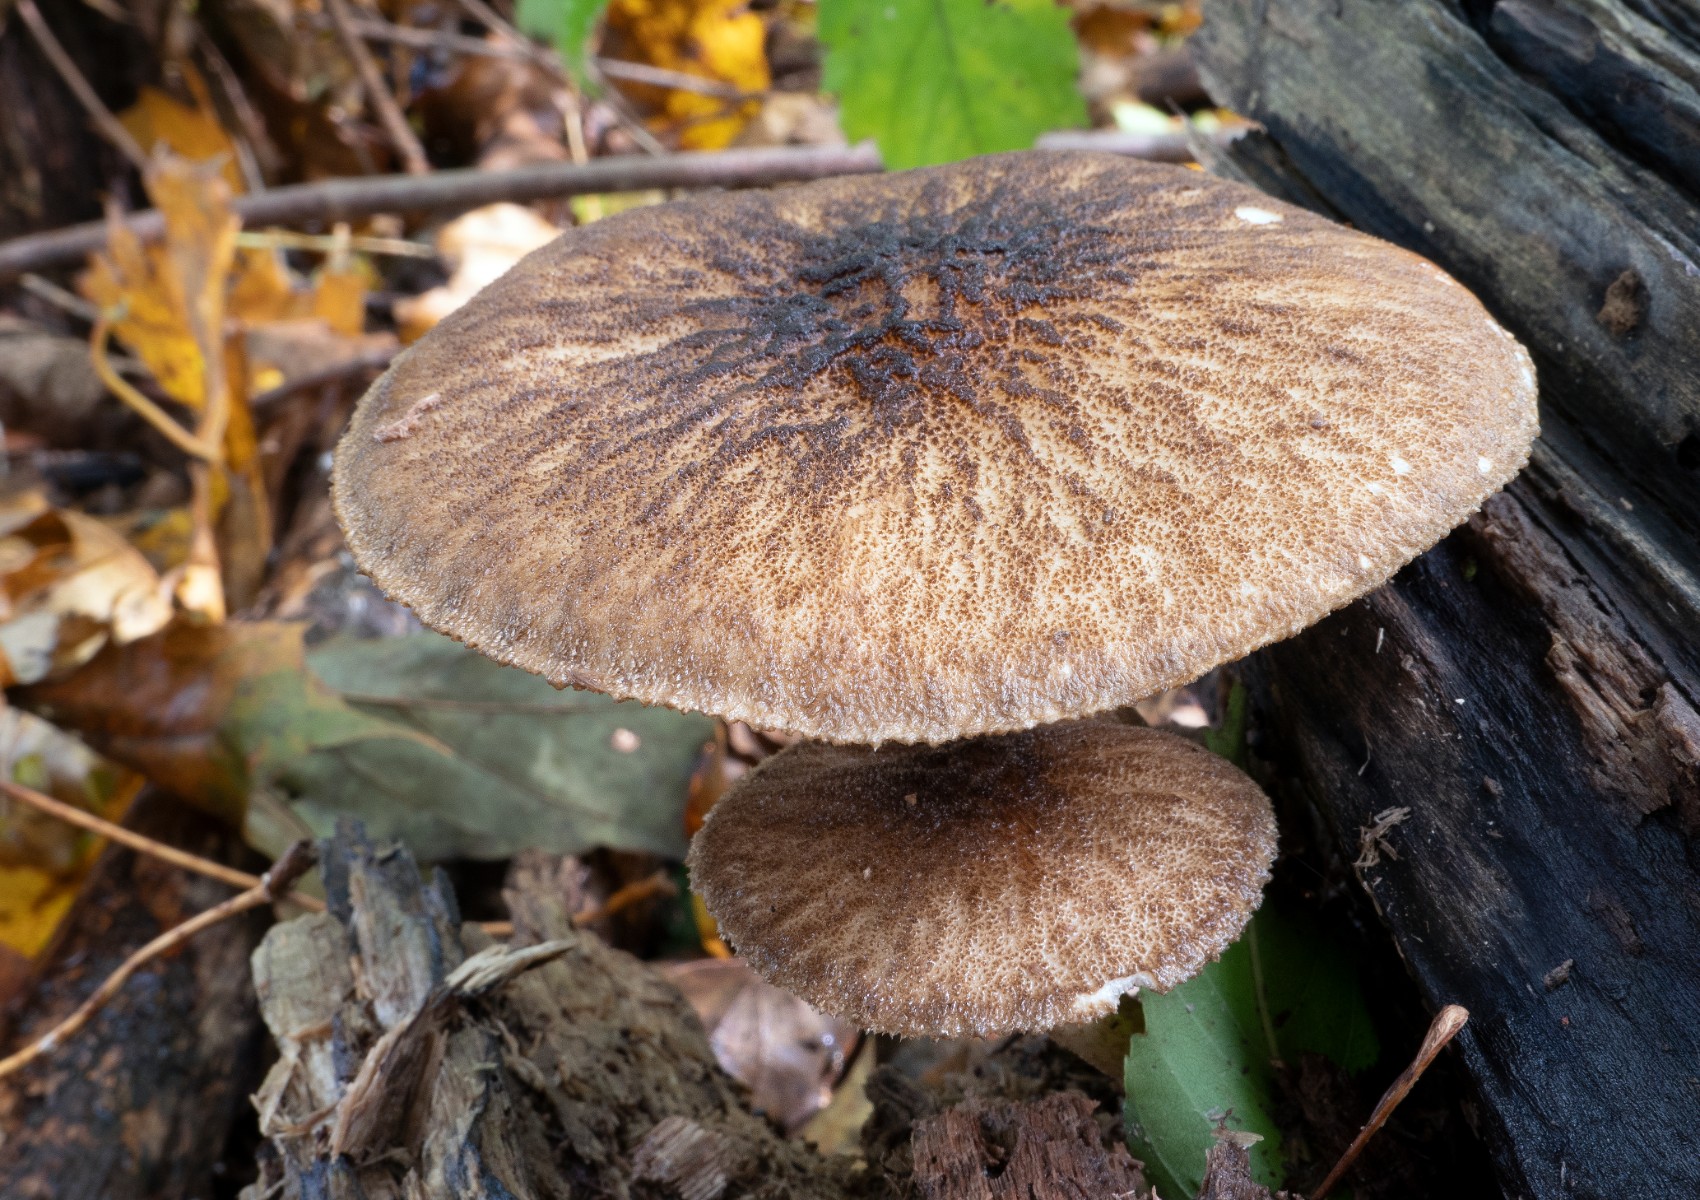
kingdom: Fungi
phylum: Basidiomycota
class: Agaricomycetes
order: Agaricales
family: Pluteaceae
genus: Pluteus
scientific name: Pluteus umbrosus
